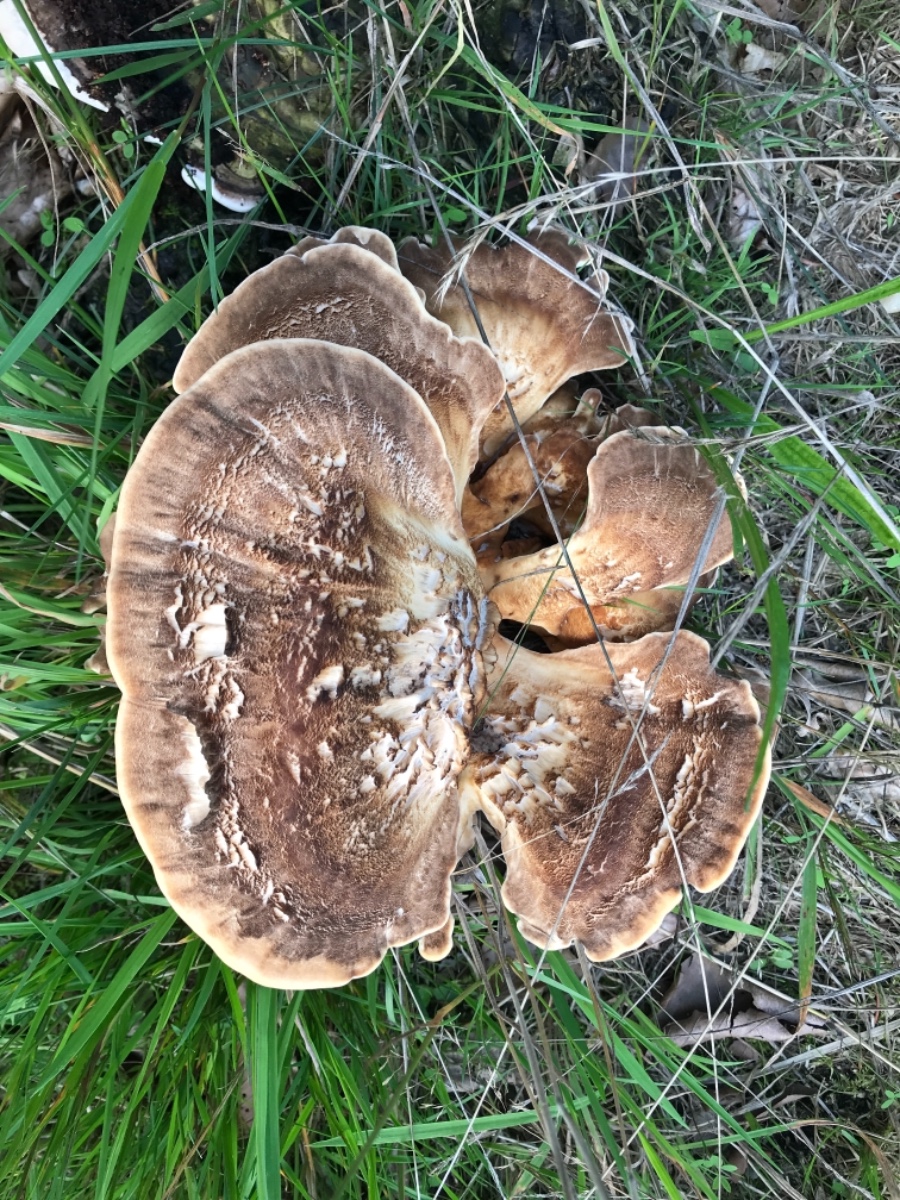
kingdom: Fungi
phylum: Basidiomycota
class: Agaricomycetes
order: Polyporales
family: Meripilaceae
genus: Meripilus
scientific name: Meripilus giganteus
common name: kæmpeporesvamp
